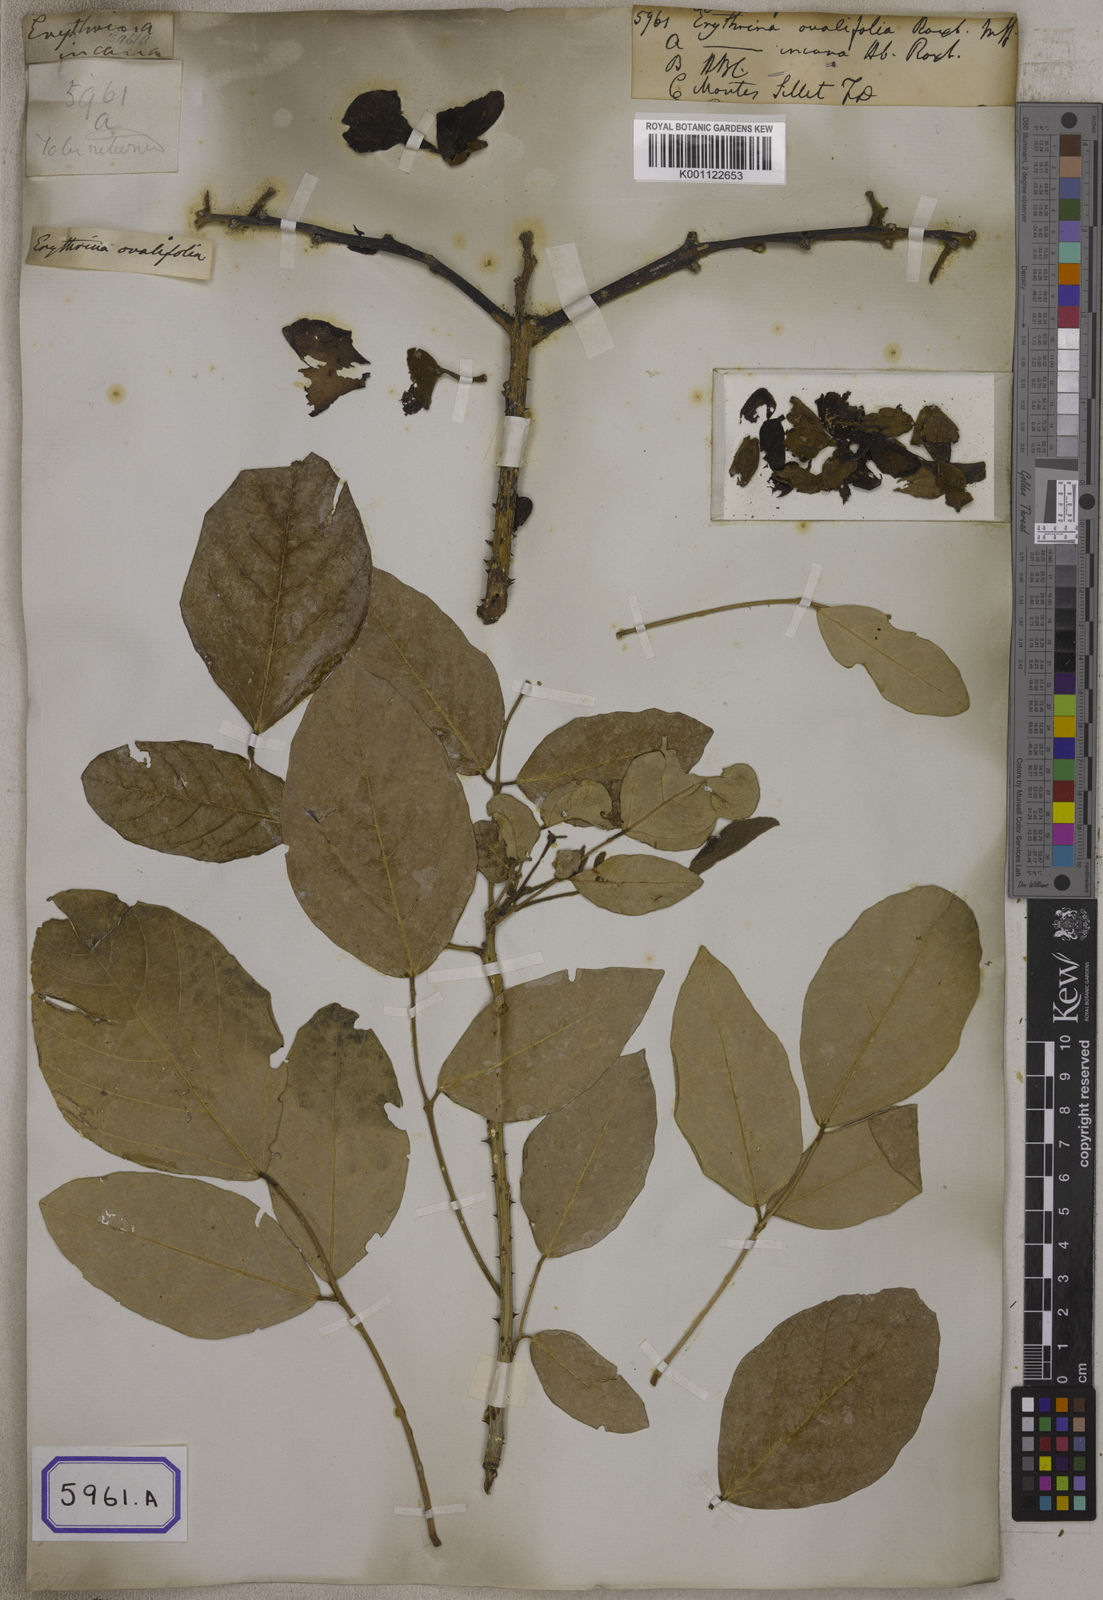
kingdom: Plantae
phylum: Tracheophyta
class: Magnoliopsida
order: Fabales
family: Fabaceae
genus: Erythrina
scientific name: Erythrina fusca
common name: Coral-bean
